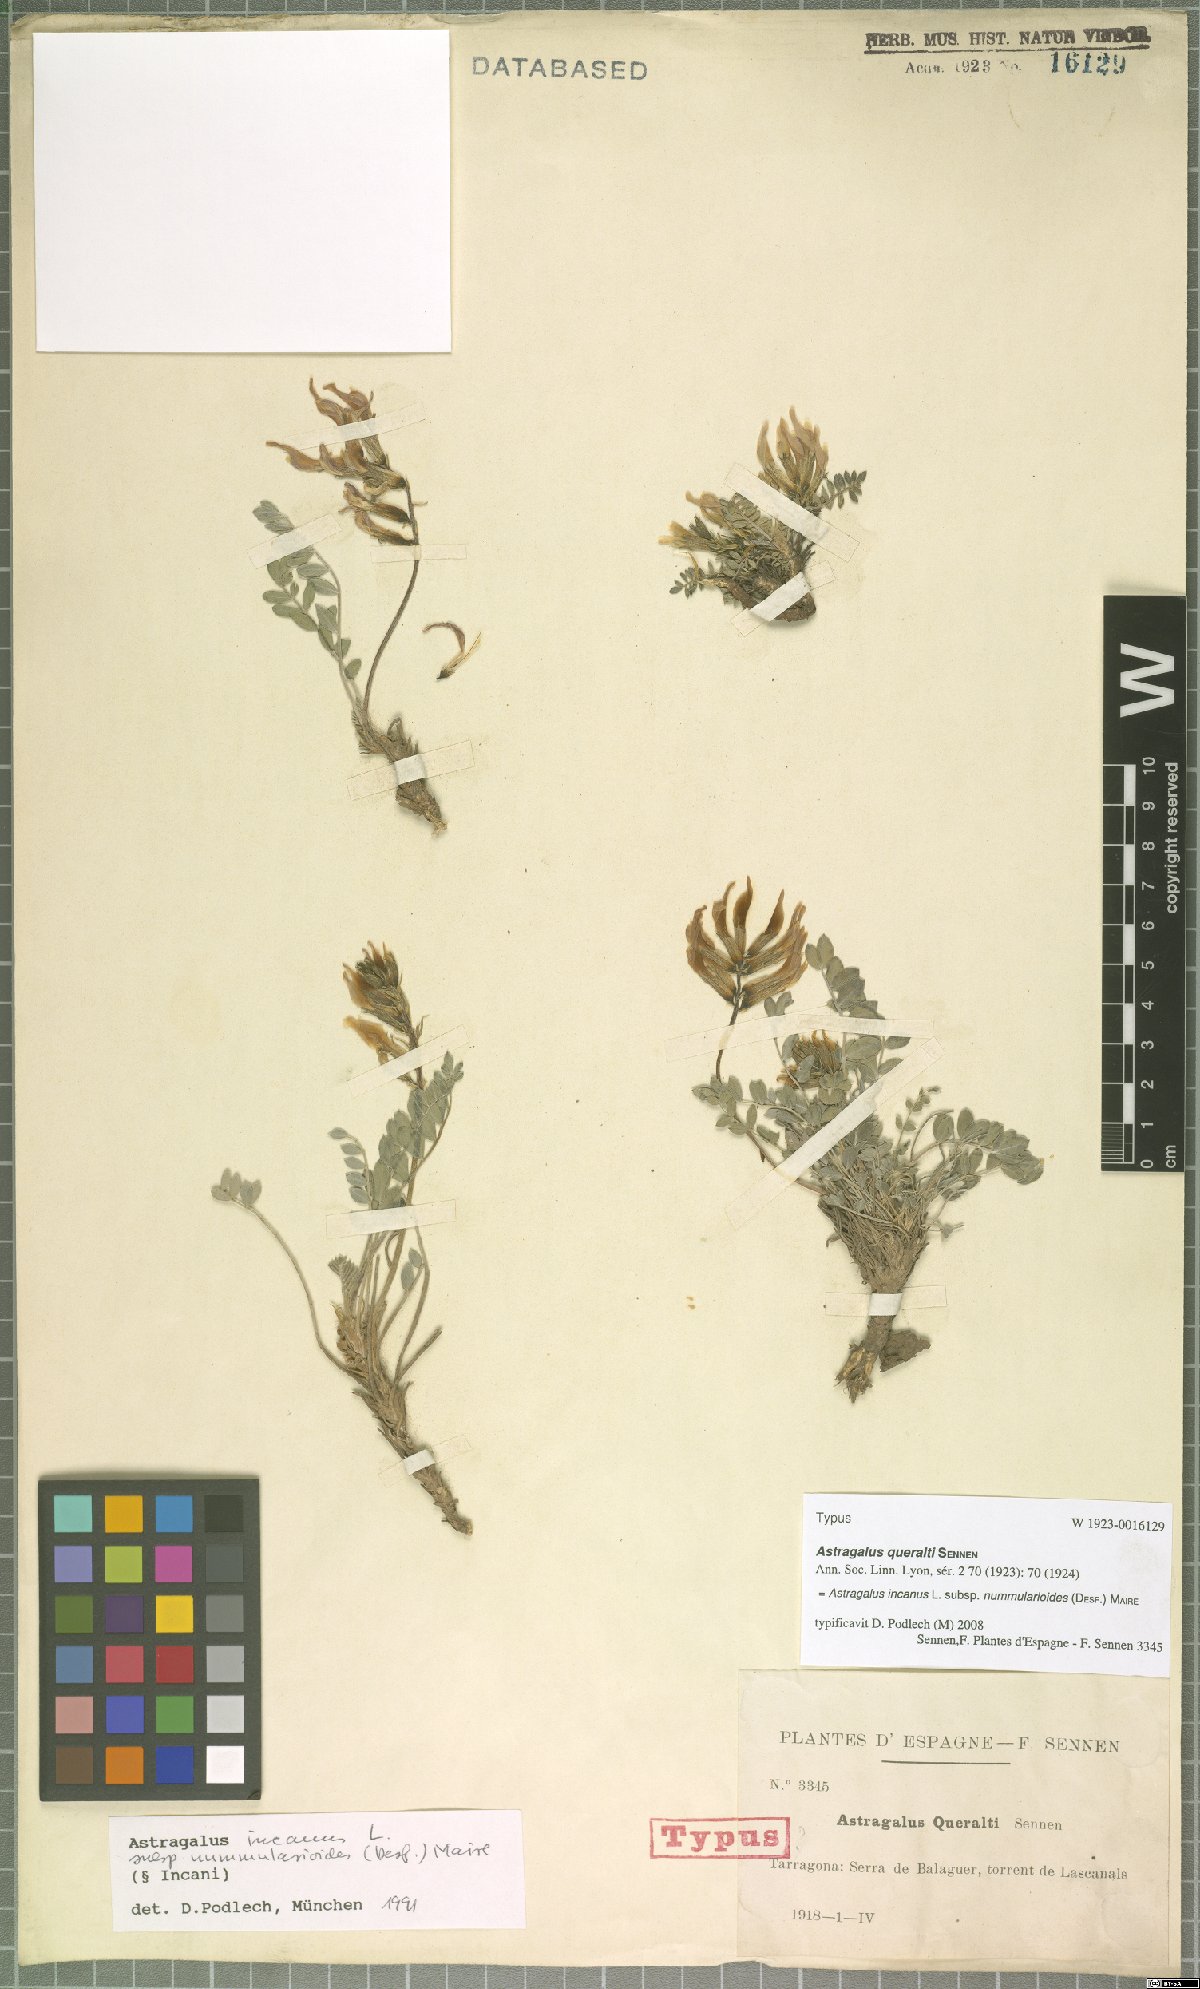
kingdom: Plantae
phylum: Tracheophyta
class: Magnoliopsida
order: Fabales
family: Fabaceae
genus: Astragalus
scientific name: Astragalus incanus
